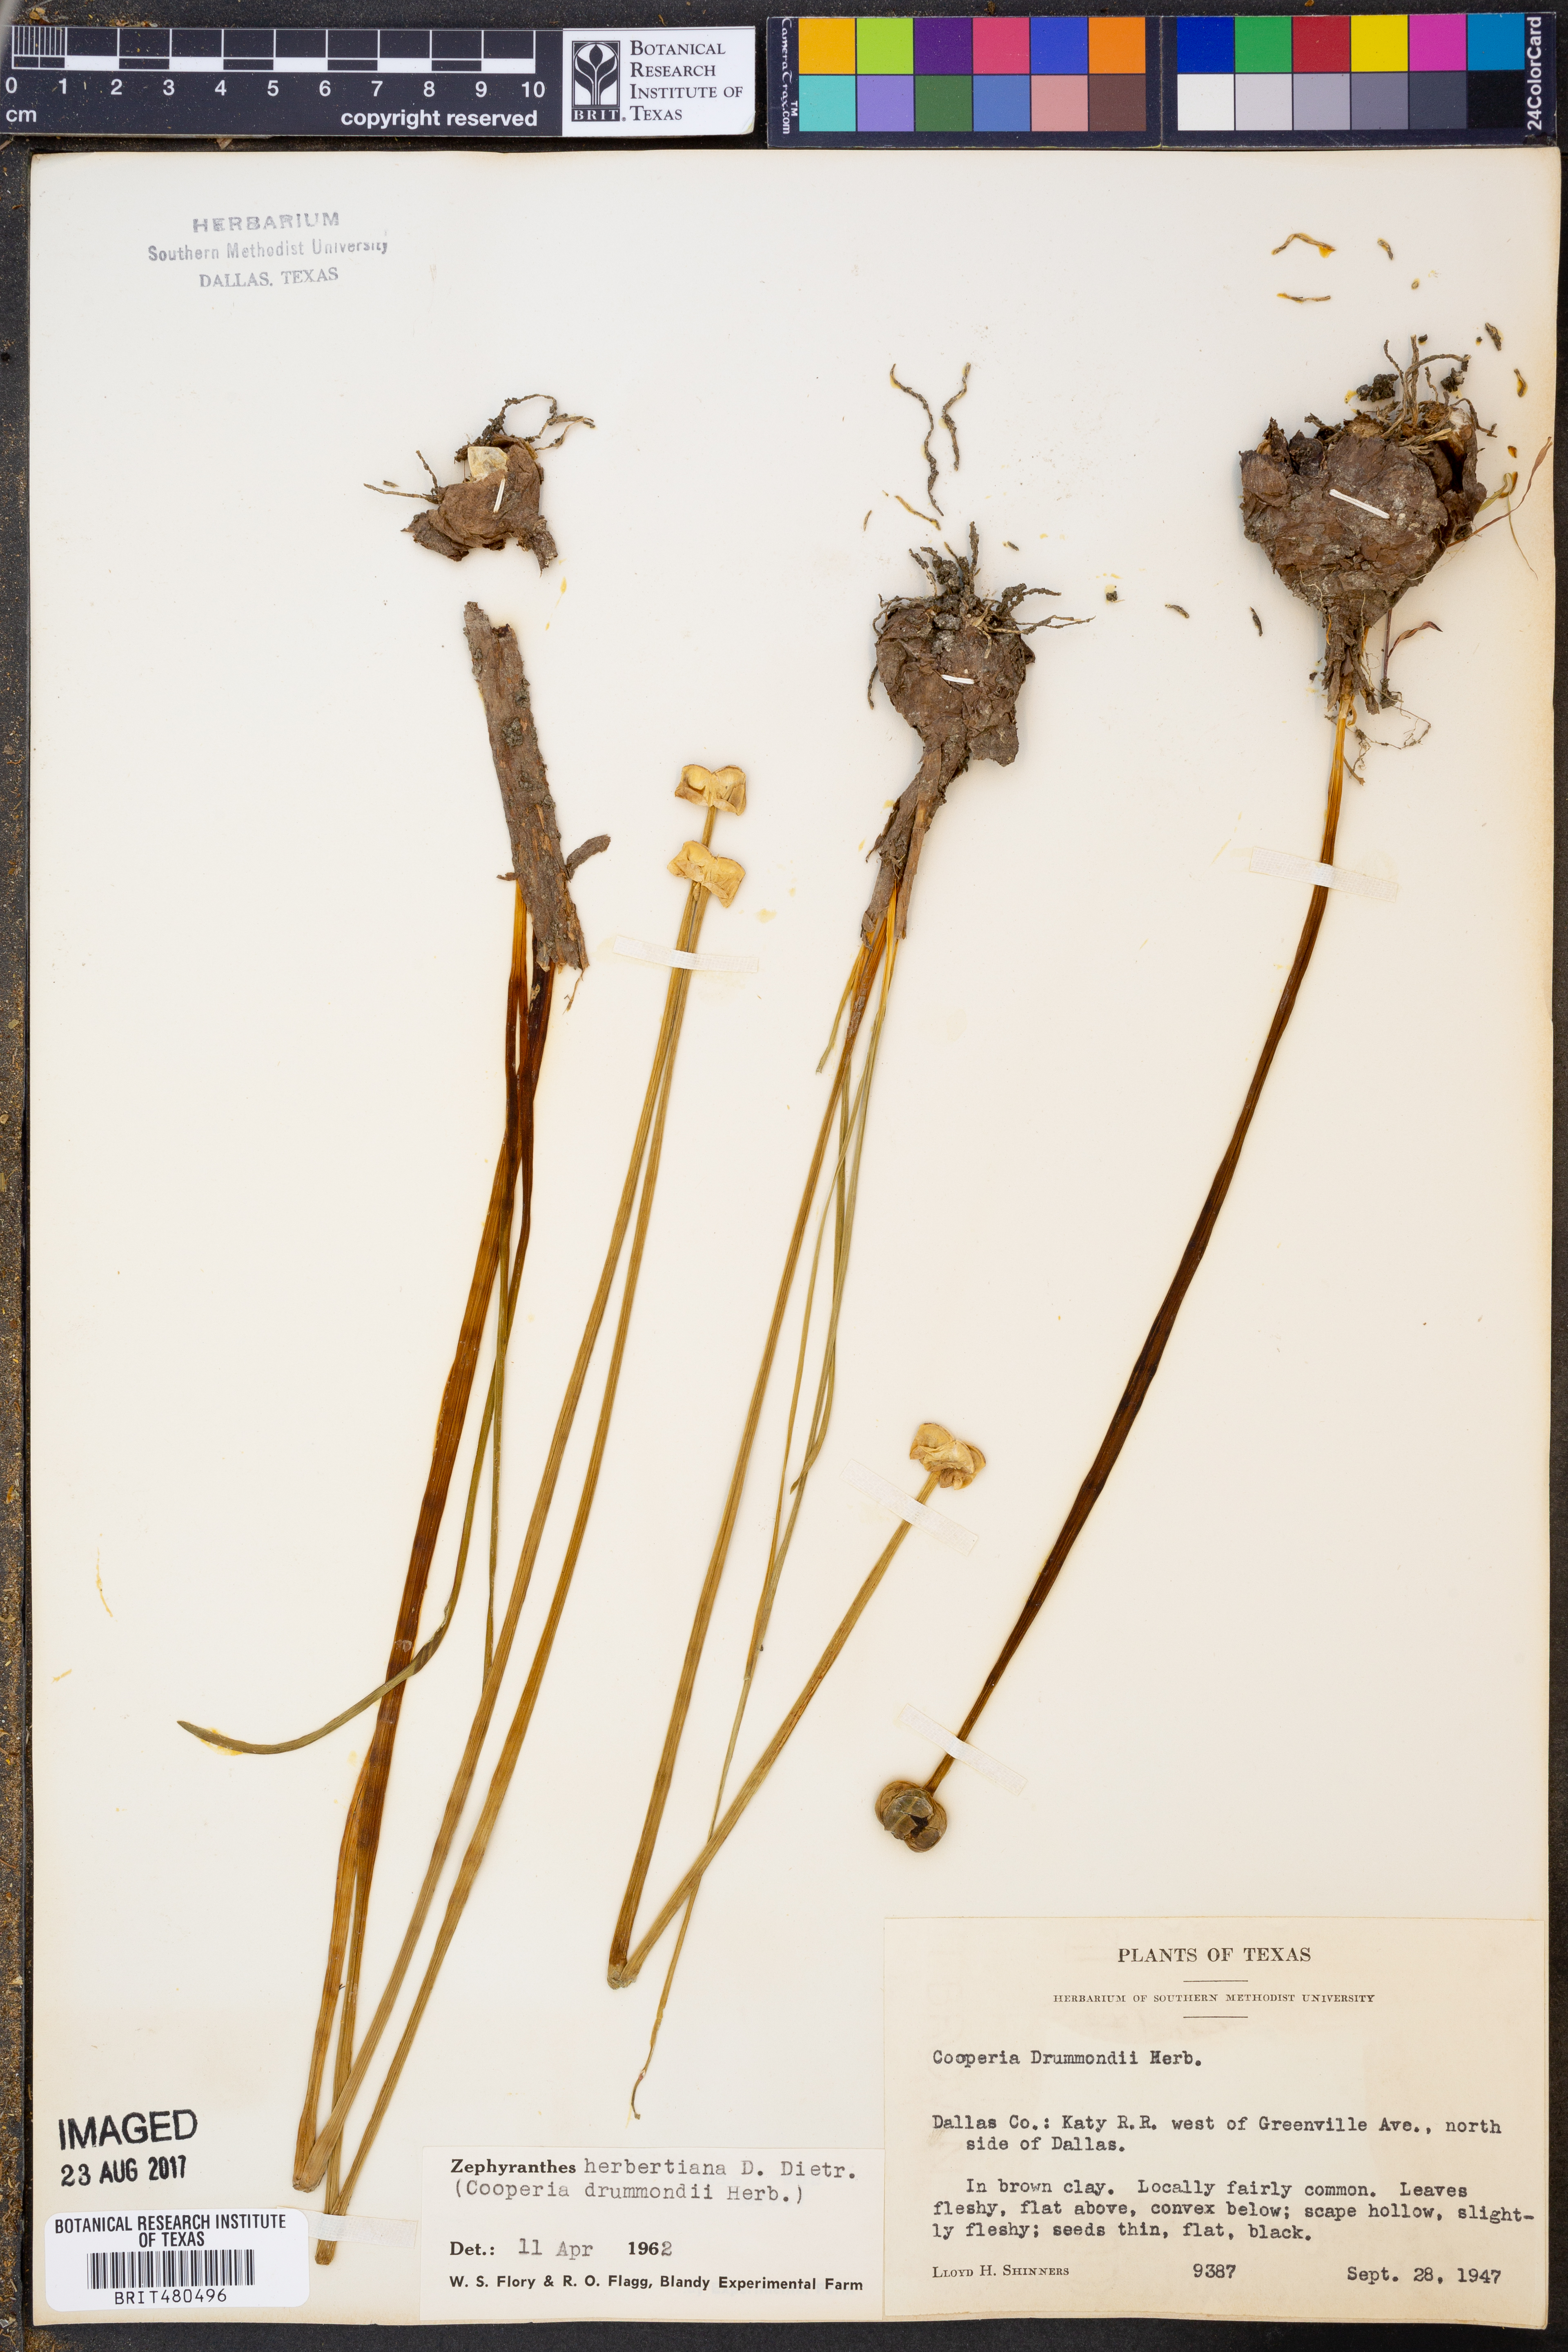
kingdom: Plantae
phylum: Tracheophyta
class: Liliopsida
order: Asparagales
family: Amaryllidaceae
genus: Zephyranthes
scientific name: Zephyranthes chlorosolen
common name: Evening rain-lily
